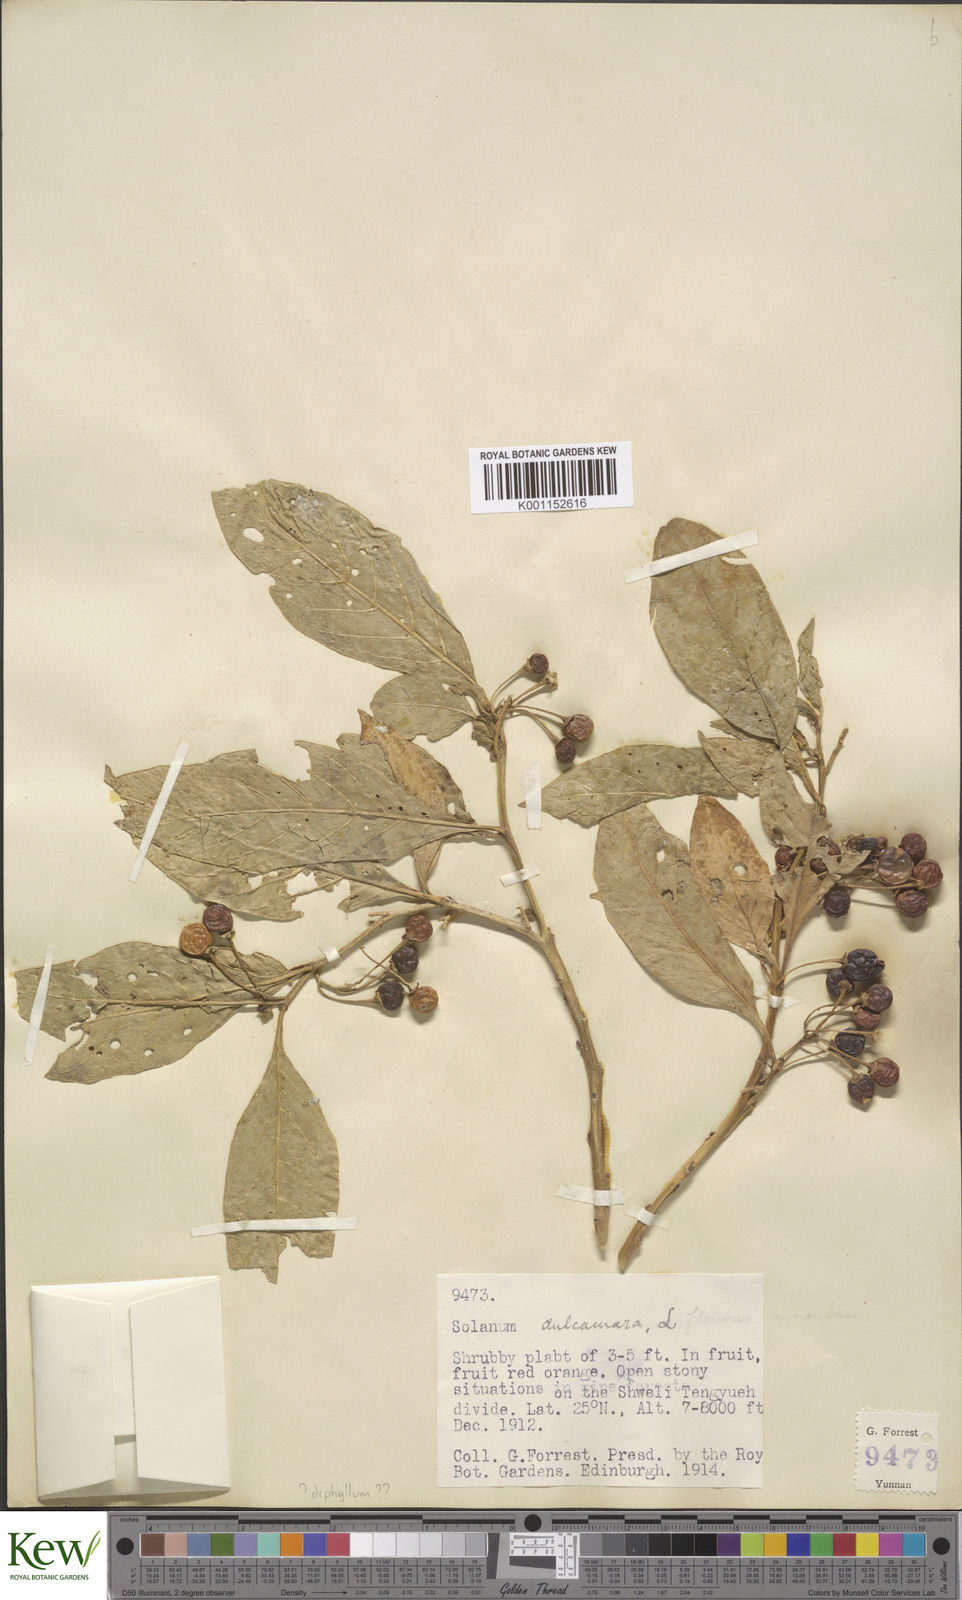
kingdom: Plantae
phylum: Tracheophyta
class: Magnoliopsida
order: Solanales
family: Solanaceae
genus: Solanum
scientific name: Solanum
